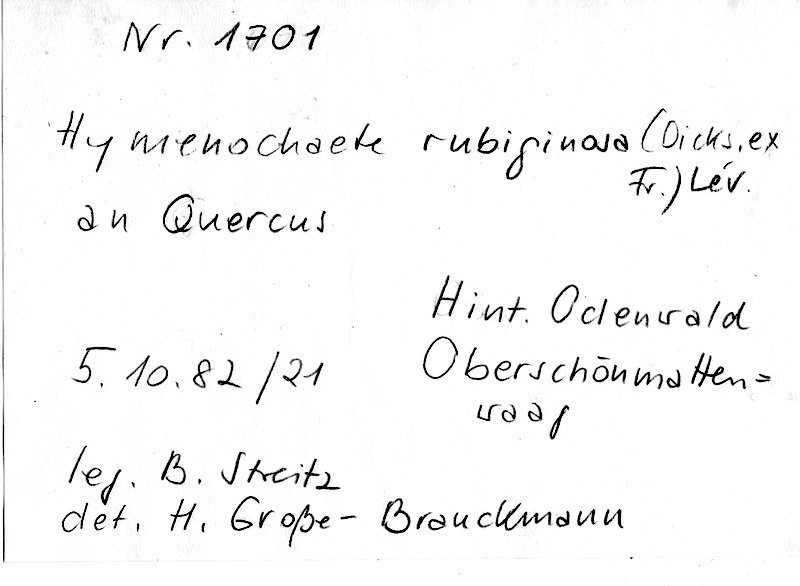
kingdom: Fungi
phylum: Basidiomycota
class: Agaricomycetes
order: Hymenochaetales
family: Hymenochaetaceae
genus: Hymenochaete
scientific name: Hymenochaete rubiginosa
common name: Oak curtain crust
